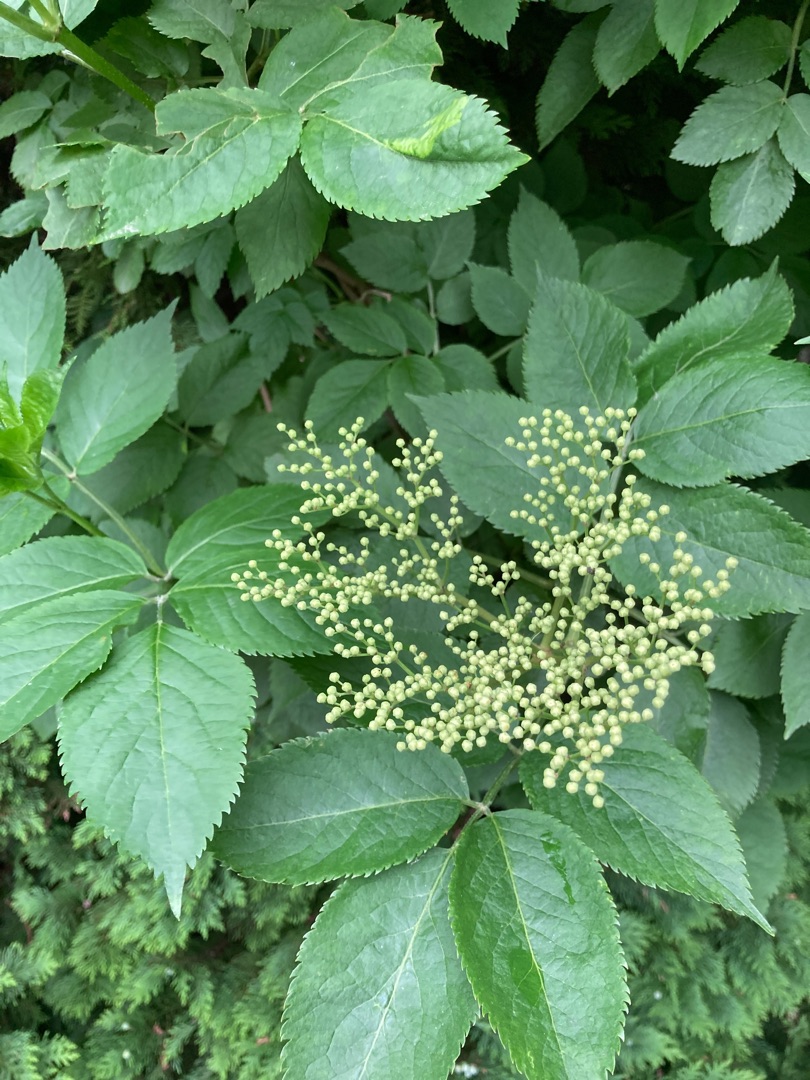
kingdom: Plantae
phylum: Tracheophyta
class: Magnoliopsida
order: Dipsacales
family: Viburnaceae
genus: Sambucus
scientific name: Sambucus nigra
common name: Almindelig hyld
